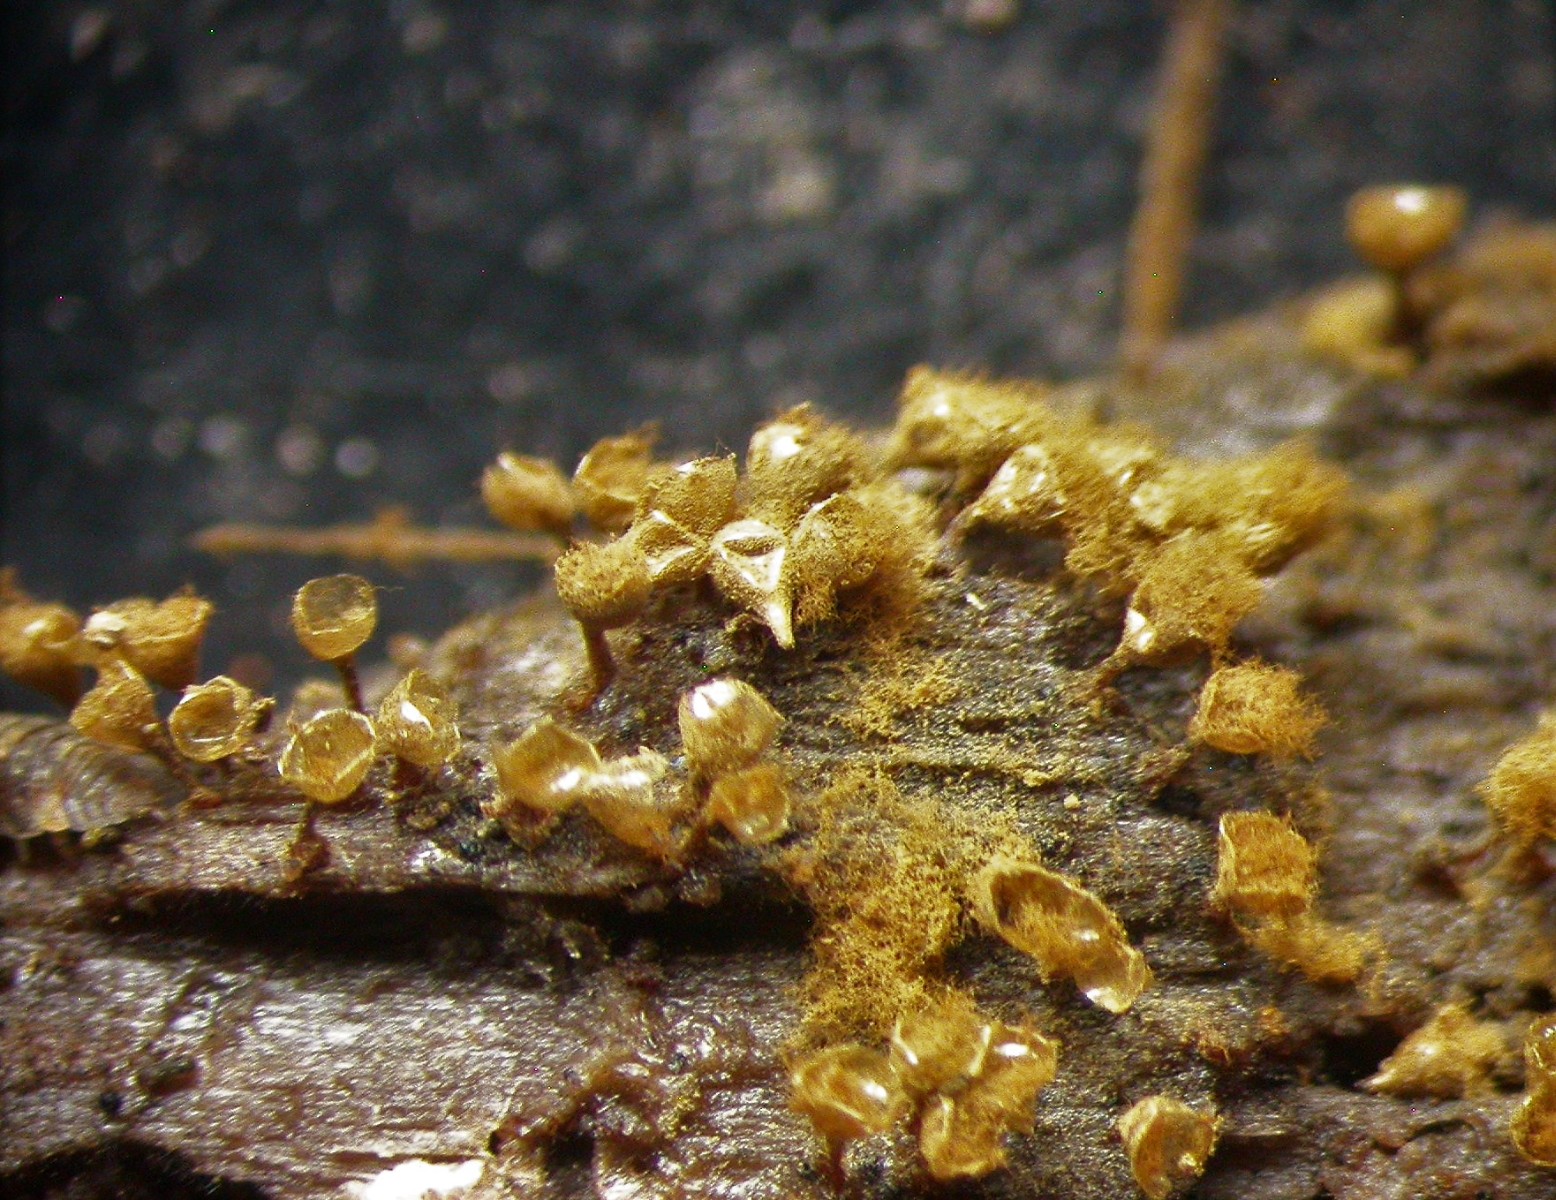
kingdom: Protozoa
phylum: Mycetozoa
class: Myxomycetes
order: Trichiales
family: Arcyriaceae
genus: Hemitrichia
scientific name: Hemitrichia decipiens
